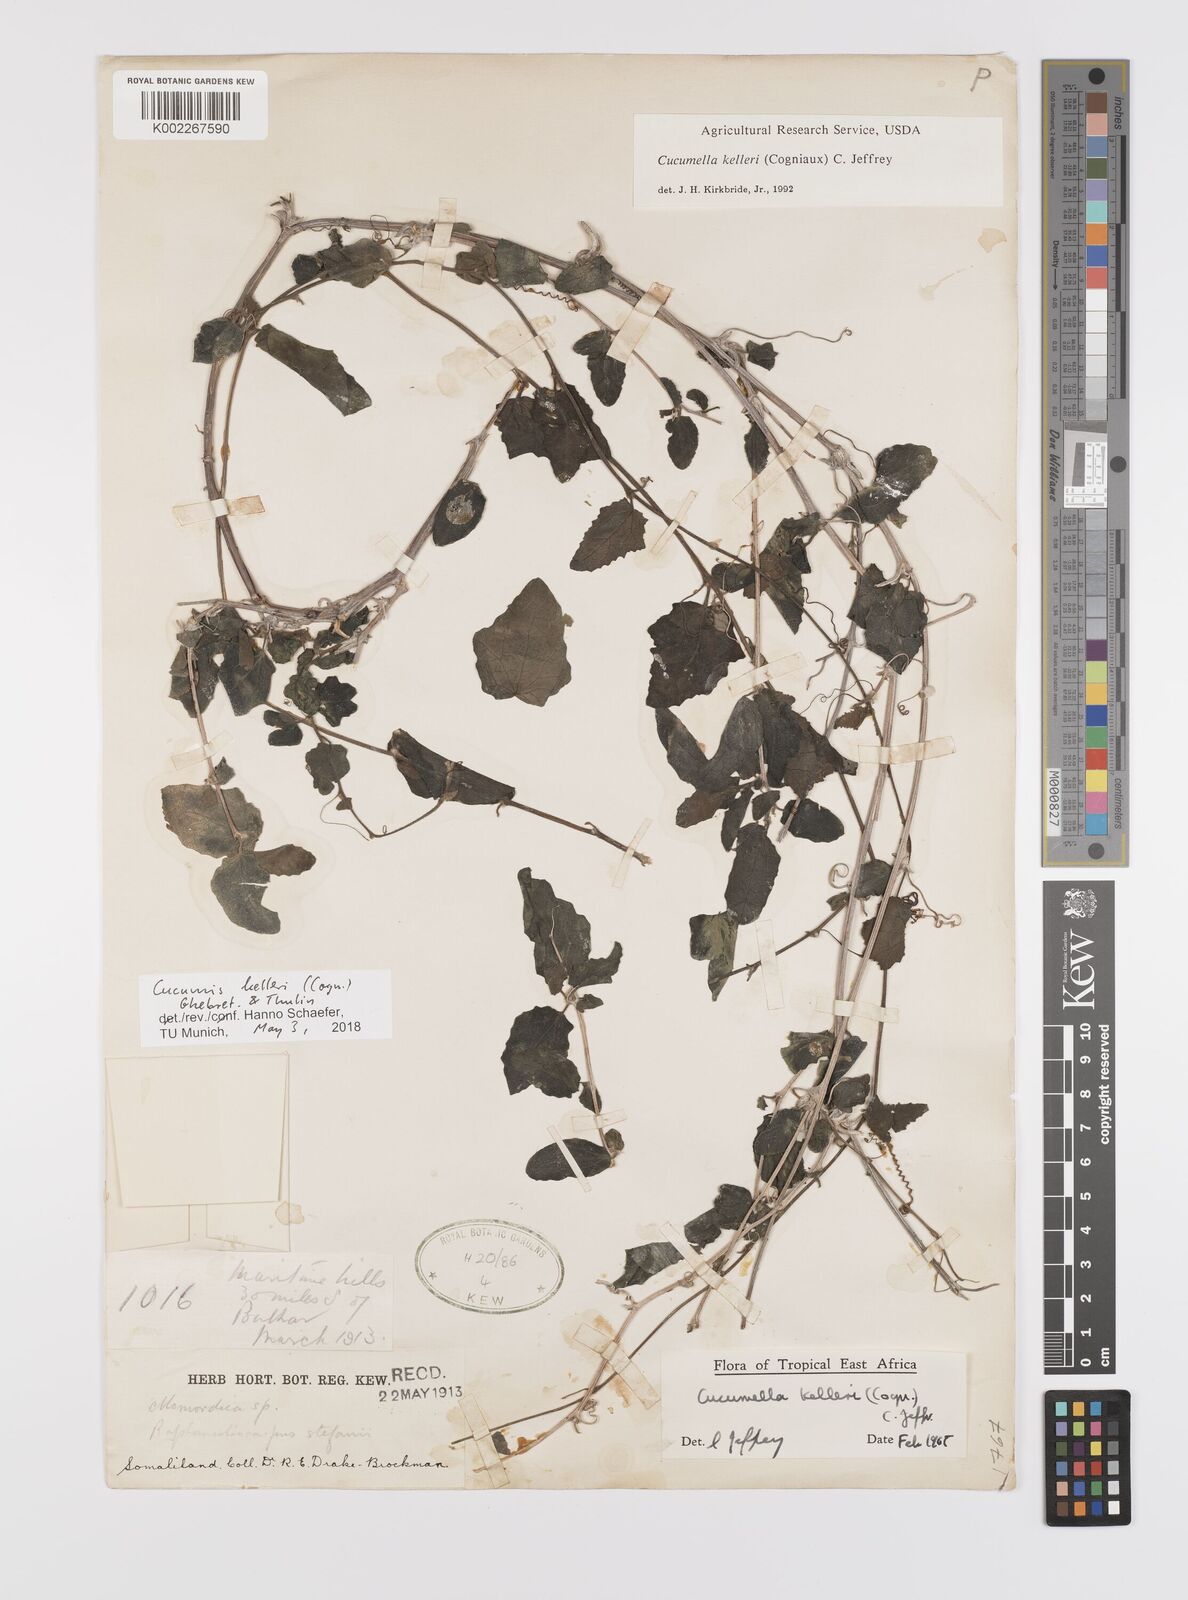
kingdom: Plantae
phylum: Tracheophyta
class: Magnoliopsida
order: Cucurbitales
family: Cucurbitaceae
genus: Cucumis
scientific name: Cucumis kelleri
